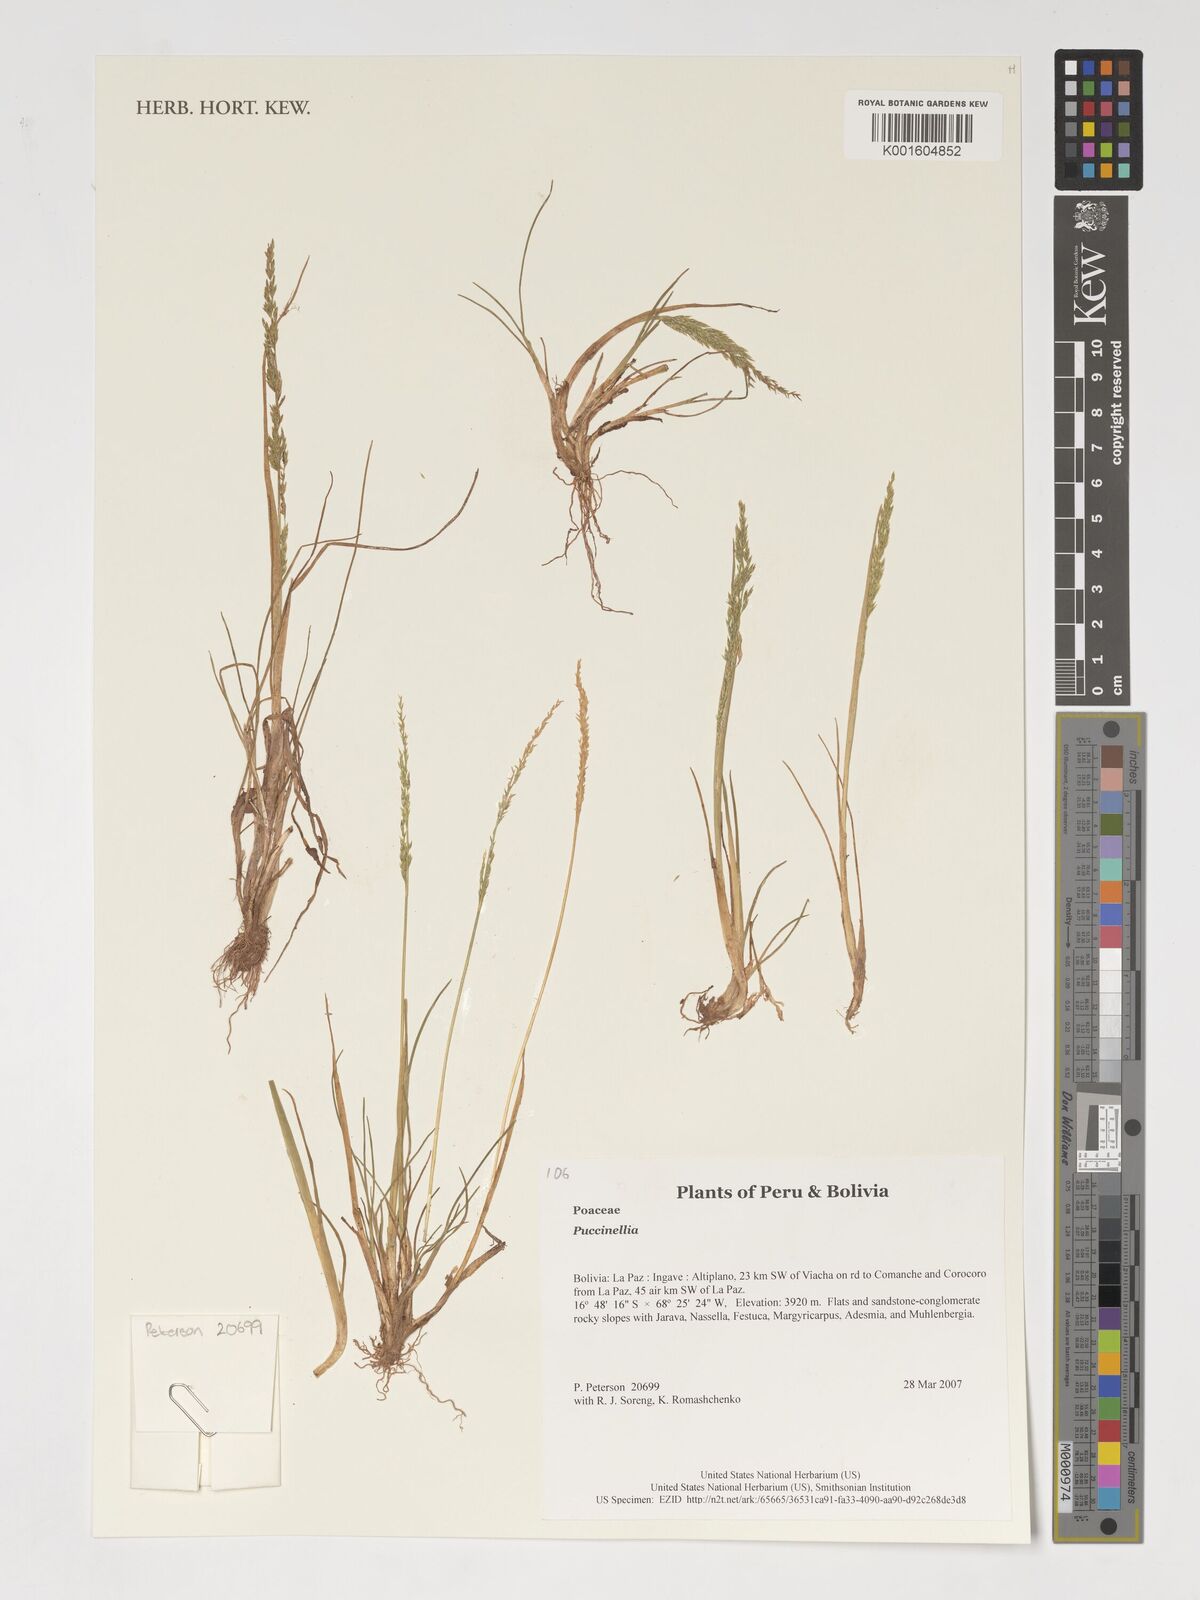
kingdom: Plantae
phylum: Tracheophyta
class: Liliopsida
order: Poales
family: Poaceae
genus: Puccinellia
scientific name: Puccinellia
